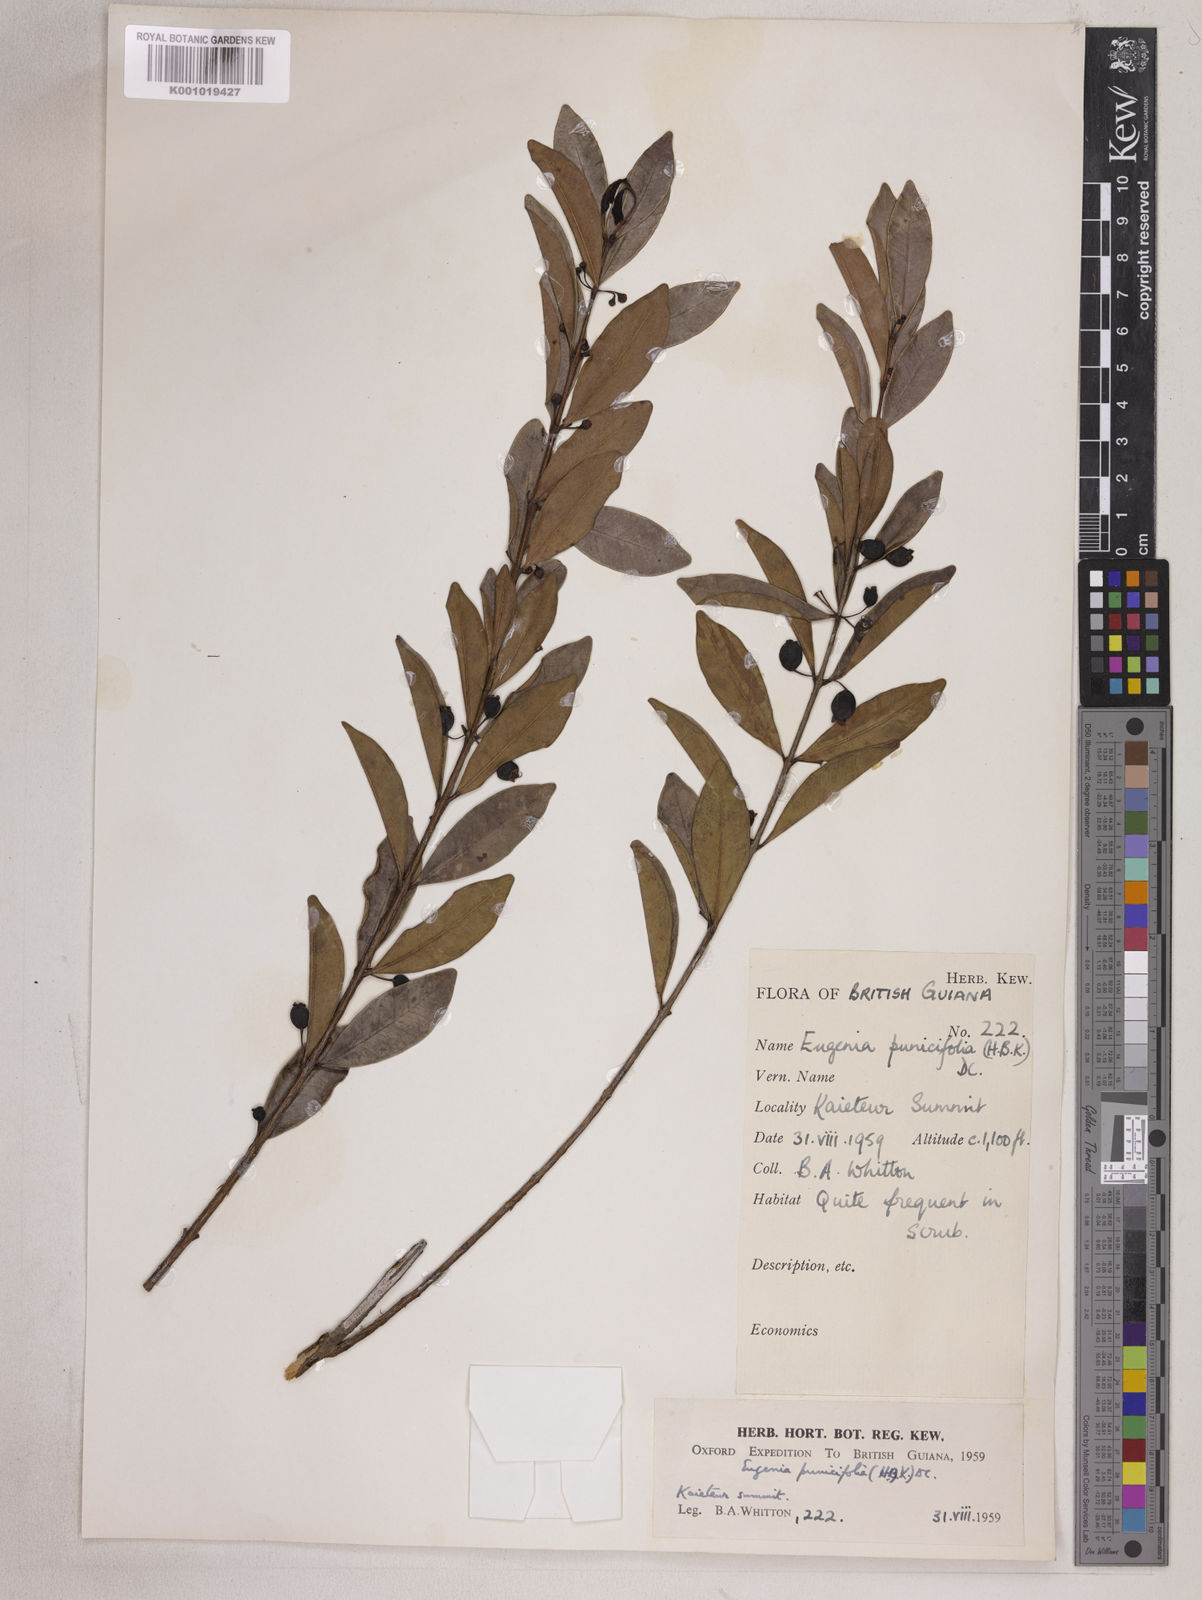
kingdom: Plantae
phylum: Tracheophyta
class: Magnoliopsida
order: Myrtales
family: Myrtaceae
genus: Eugenia
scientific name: Eugenia punicifolia
